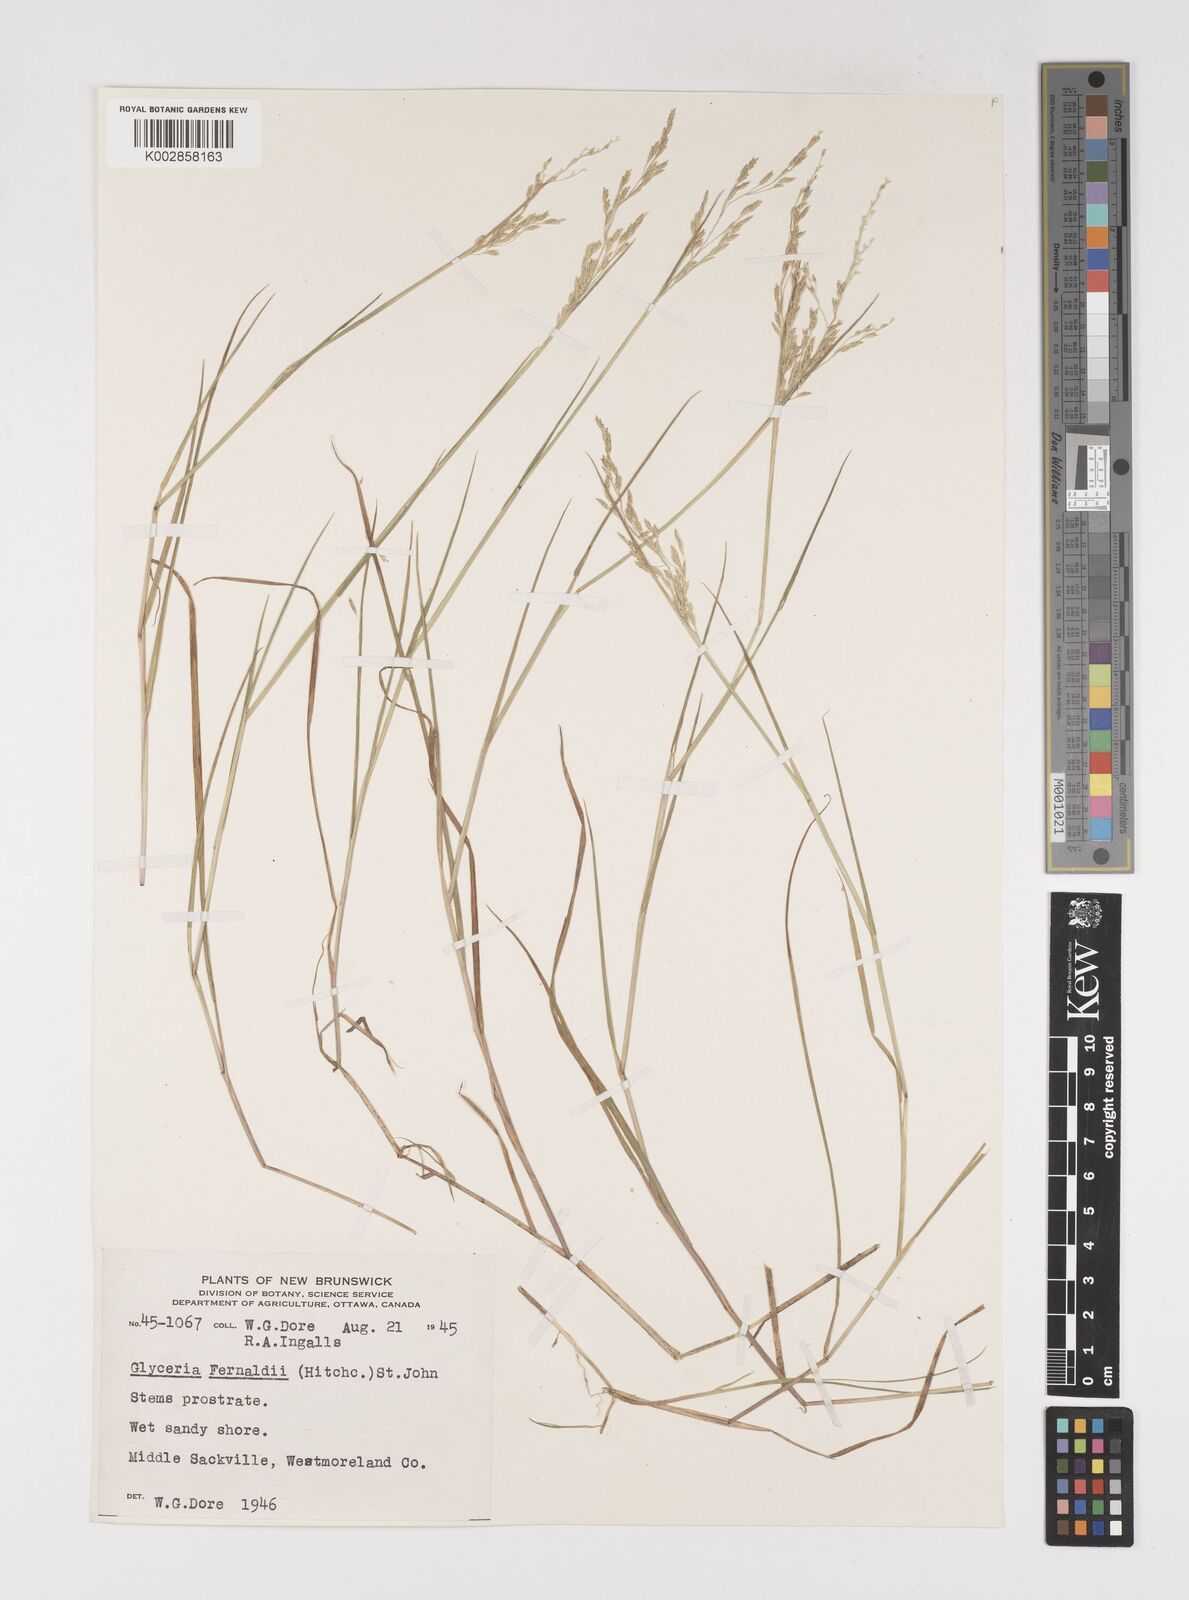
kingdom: Plantae
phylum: Tracheophyta
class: Liliopsida
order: Poales
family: Poaceae
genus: Torreyochloa
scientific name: Torreyochloa pallida
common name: Pale false mannagrass
